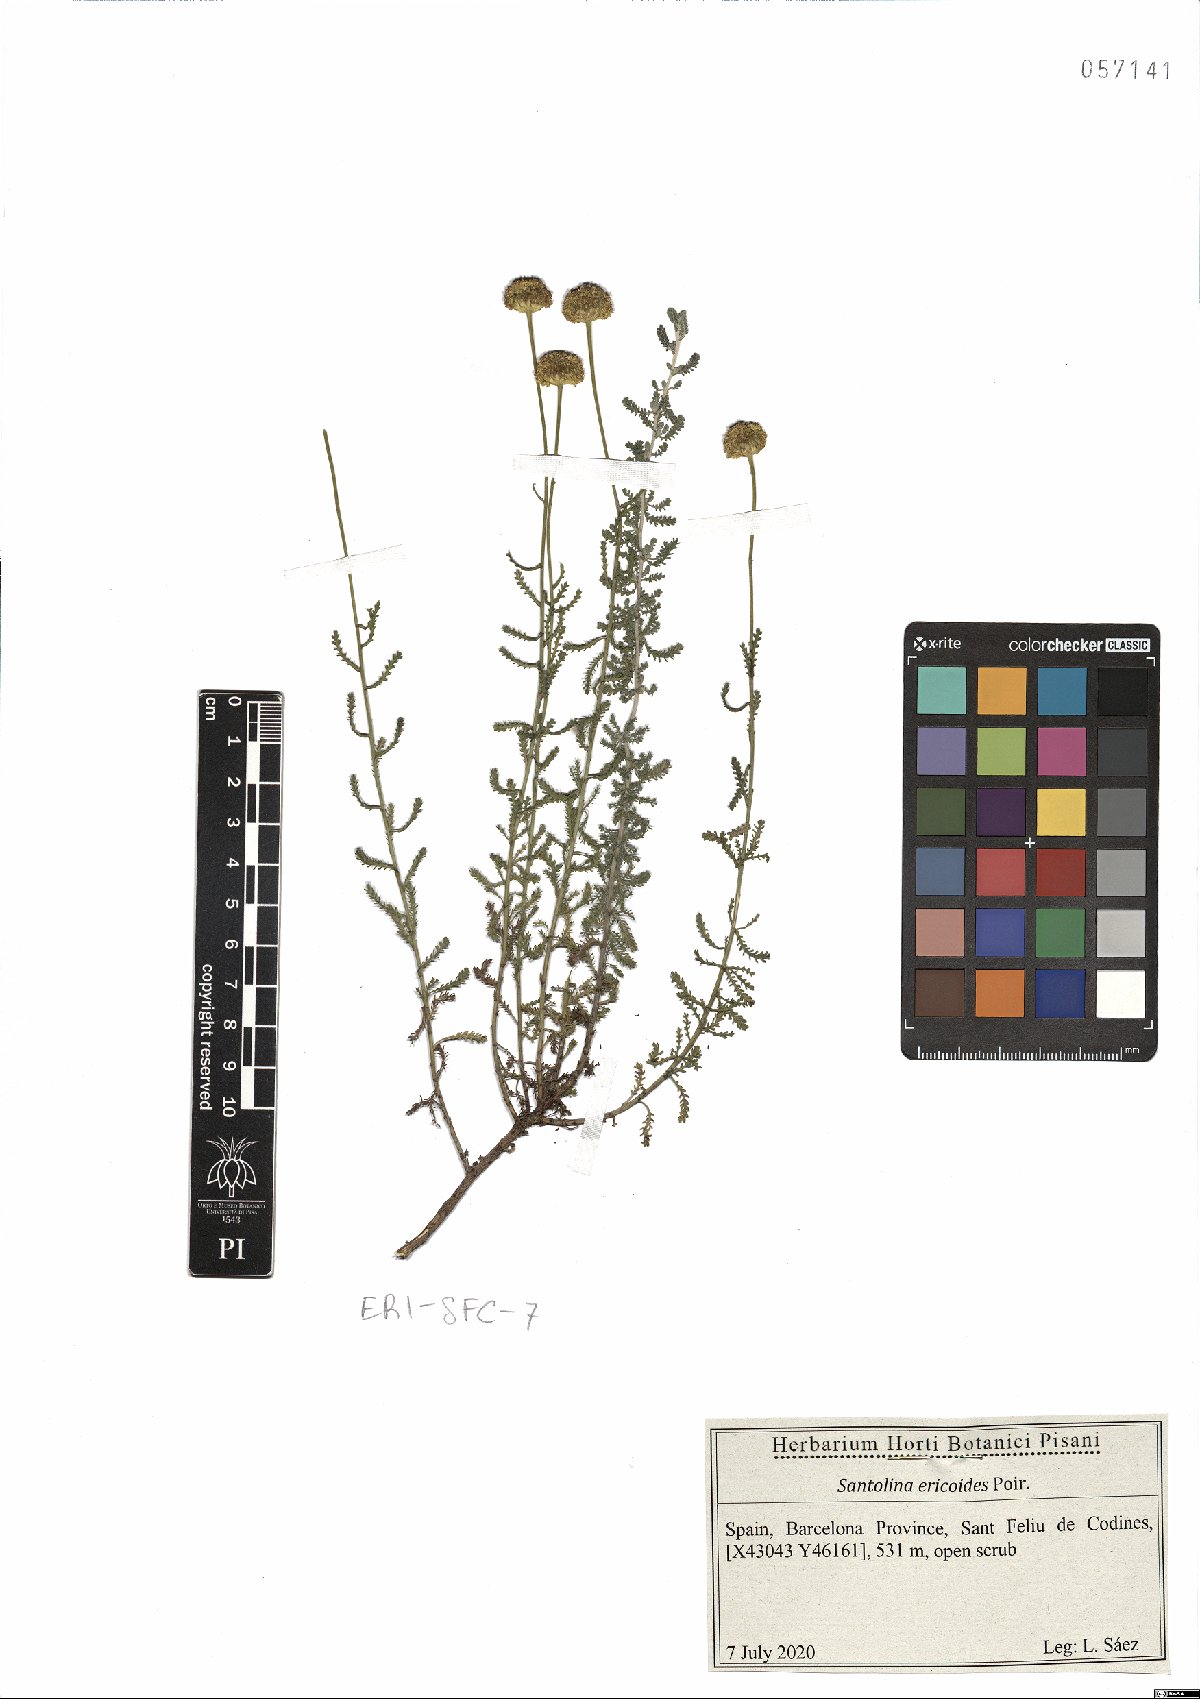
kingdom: Plantae
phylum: Tracheophyta
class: Magnoliopsida
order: Asterales
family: Asteraceae
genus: Santolina
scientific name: Santolina ericoides
